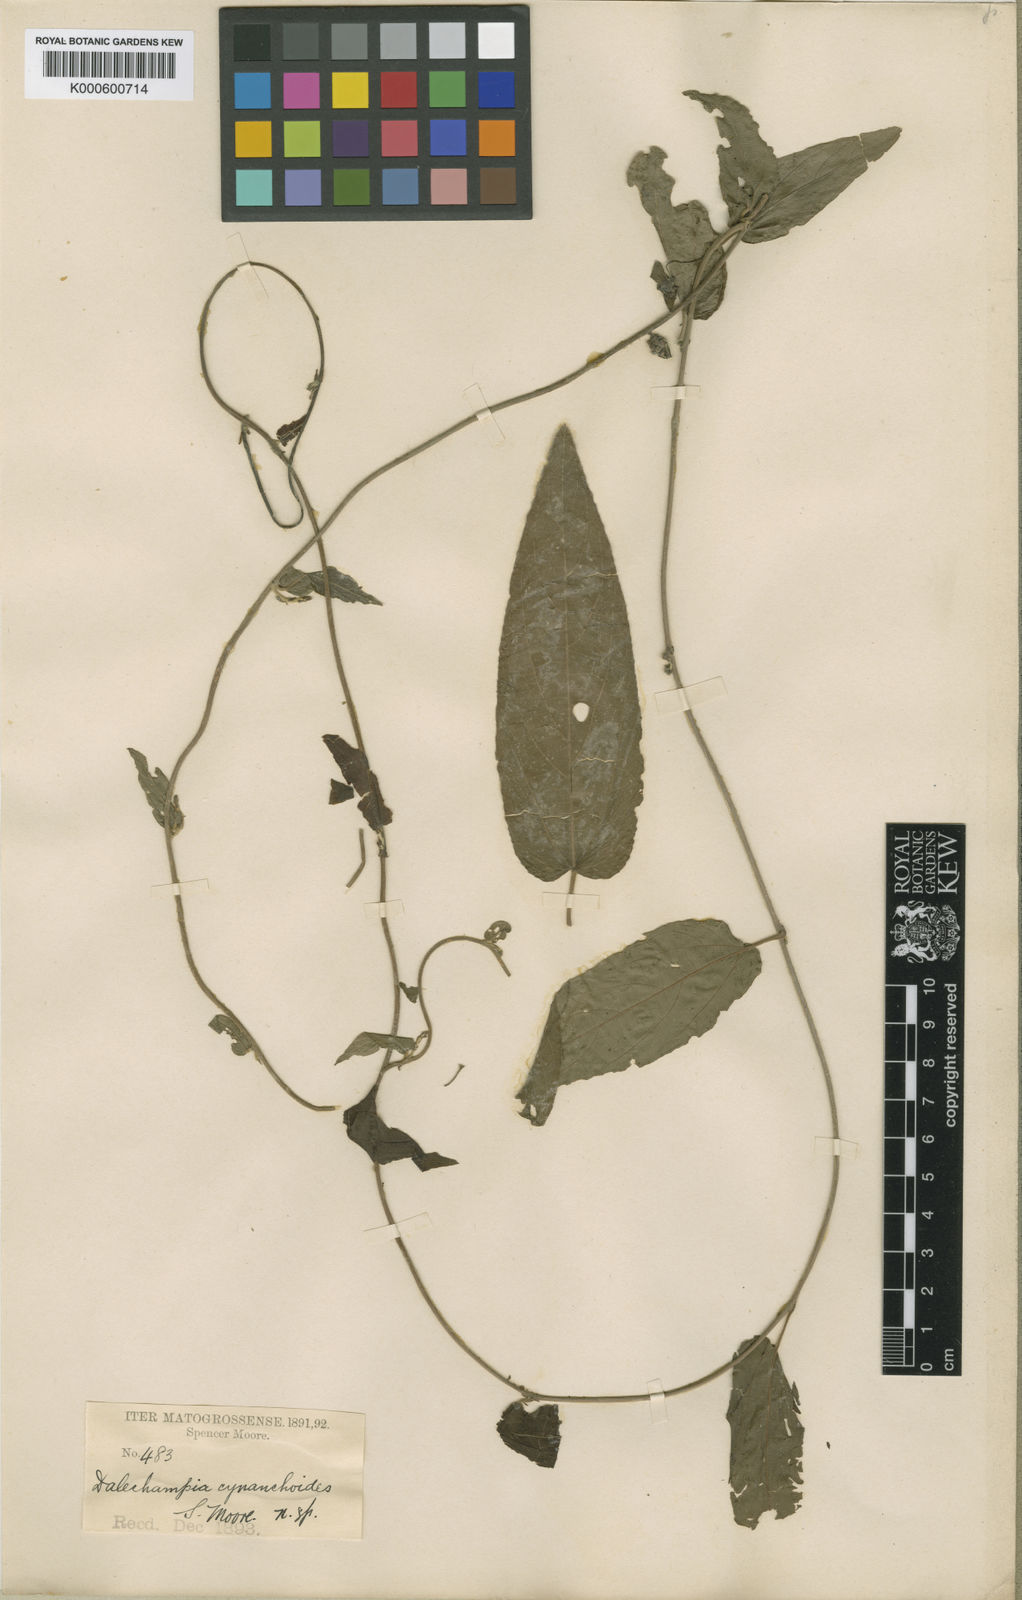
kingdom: Plantae
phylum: Tracheophyta
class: Magnoliopsida
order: Malpighiales
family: Euphorbiaceae
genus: Dalechampia
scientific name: Dalechampia tenuiramea
